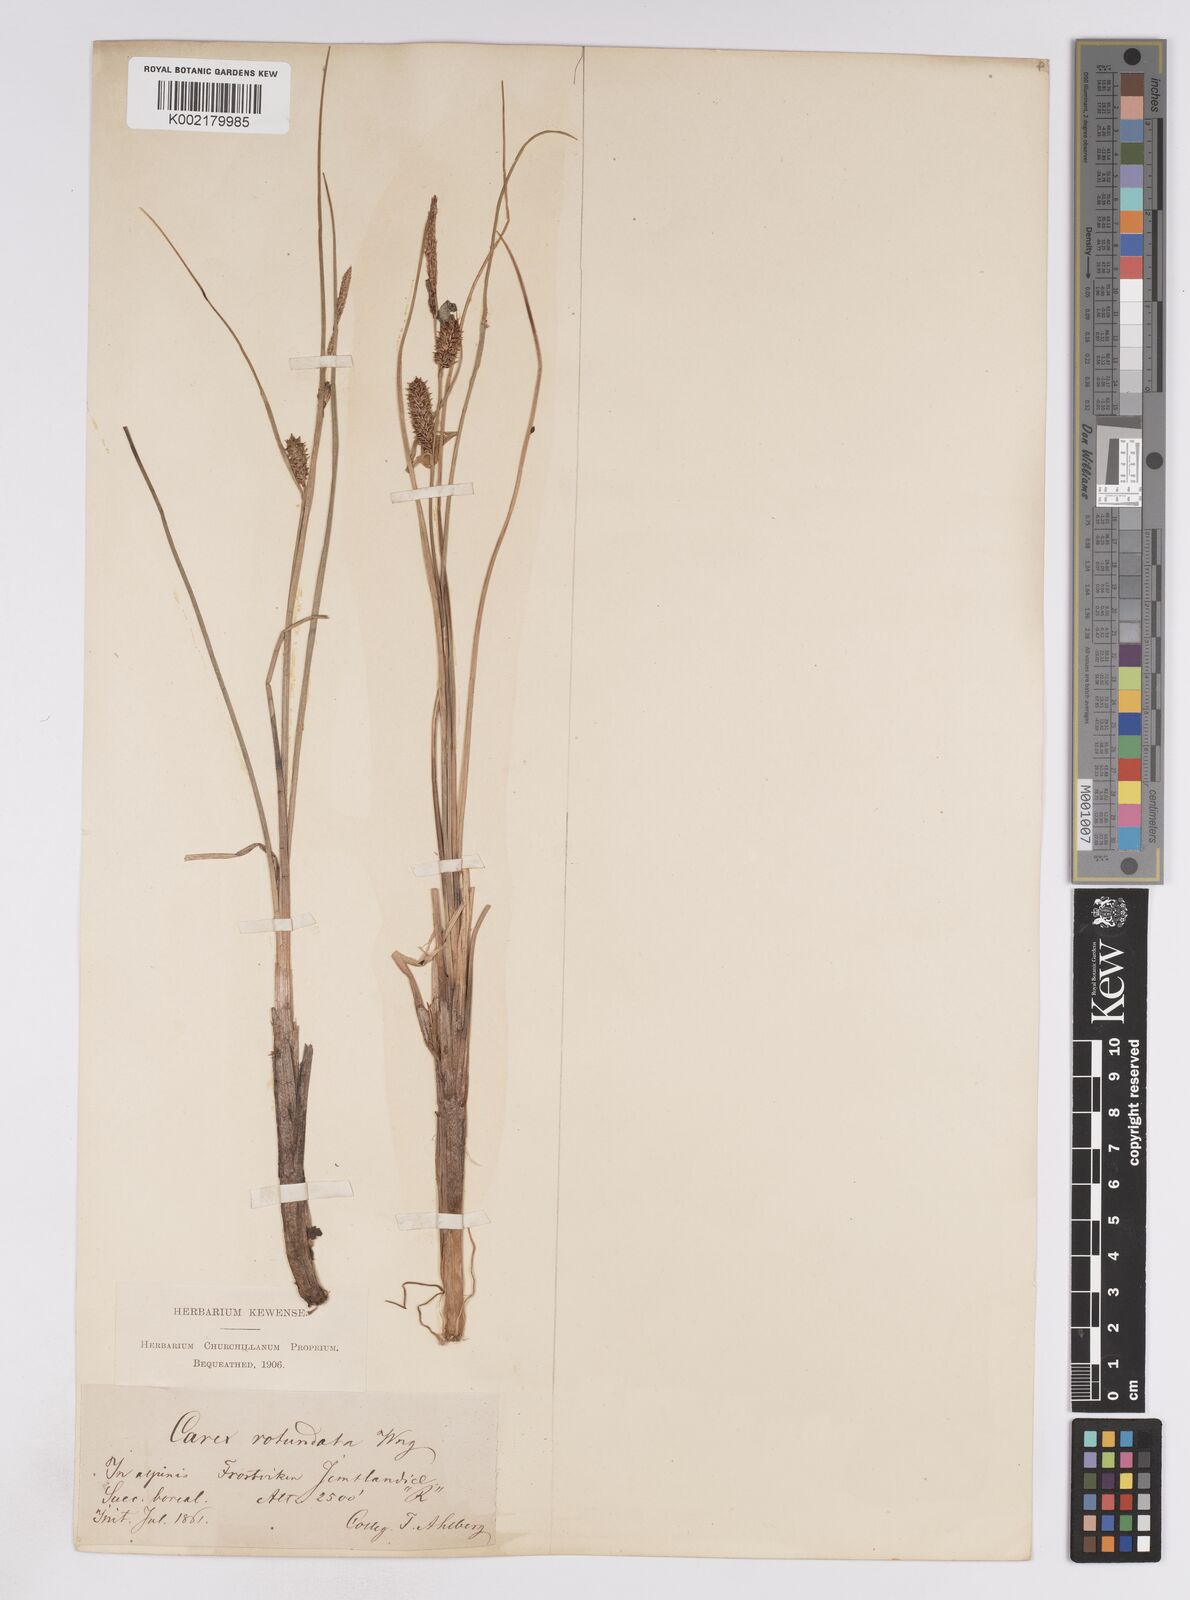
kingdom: Plantae
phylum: Tracheophyta
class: Liliopsida
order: Poales
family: Cyperaceae
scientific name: Cyperaceae
